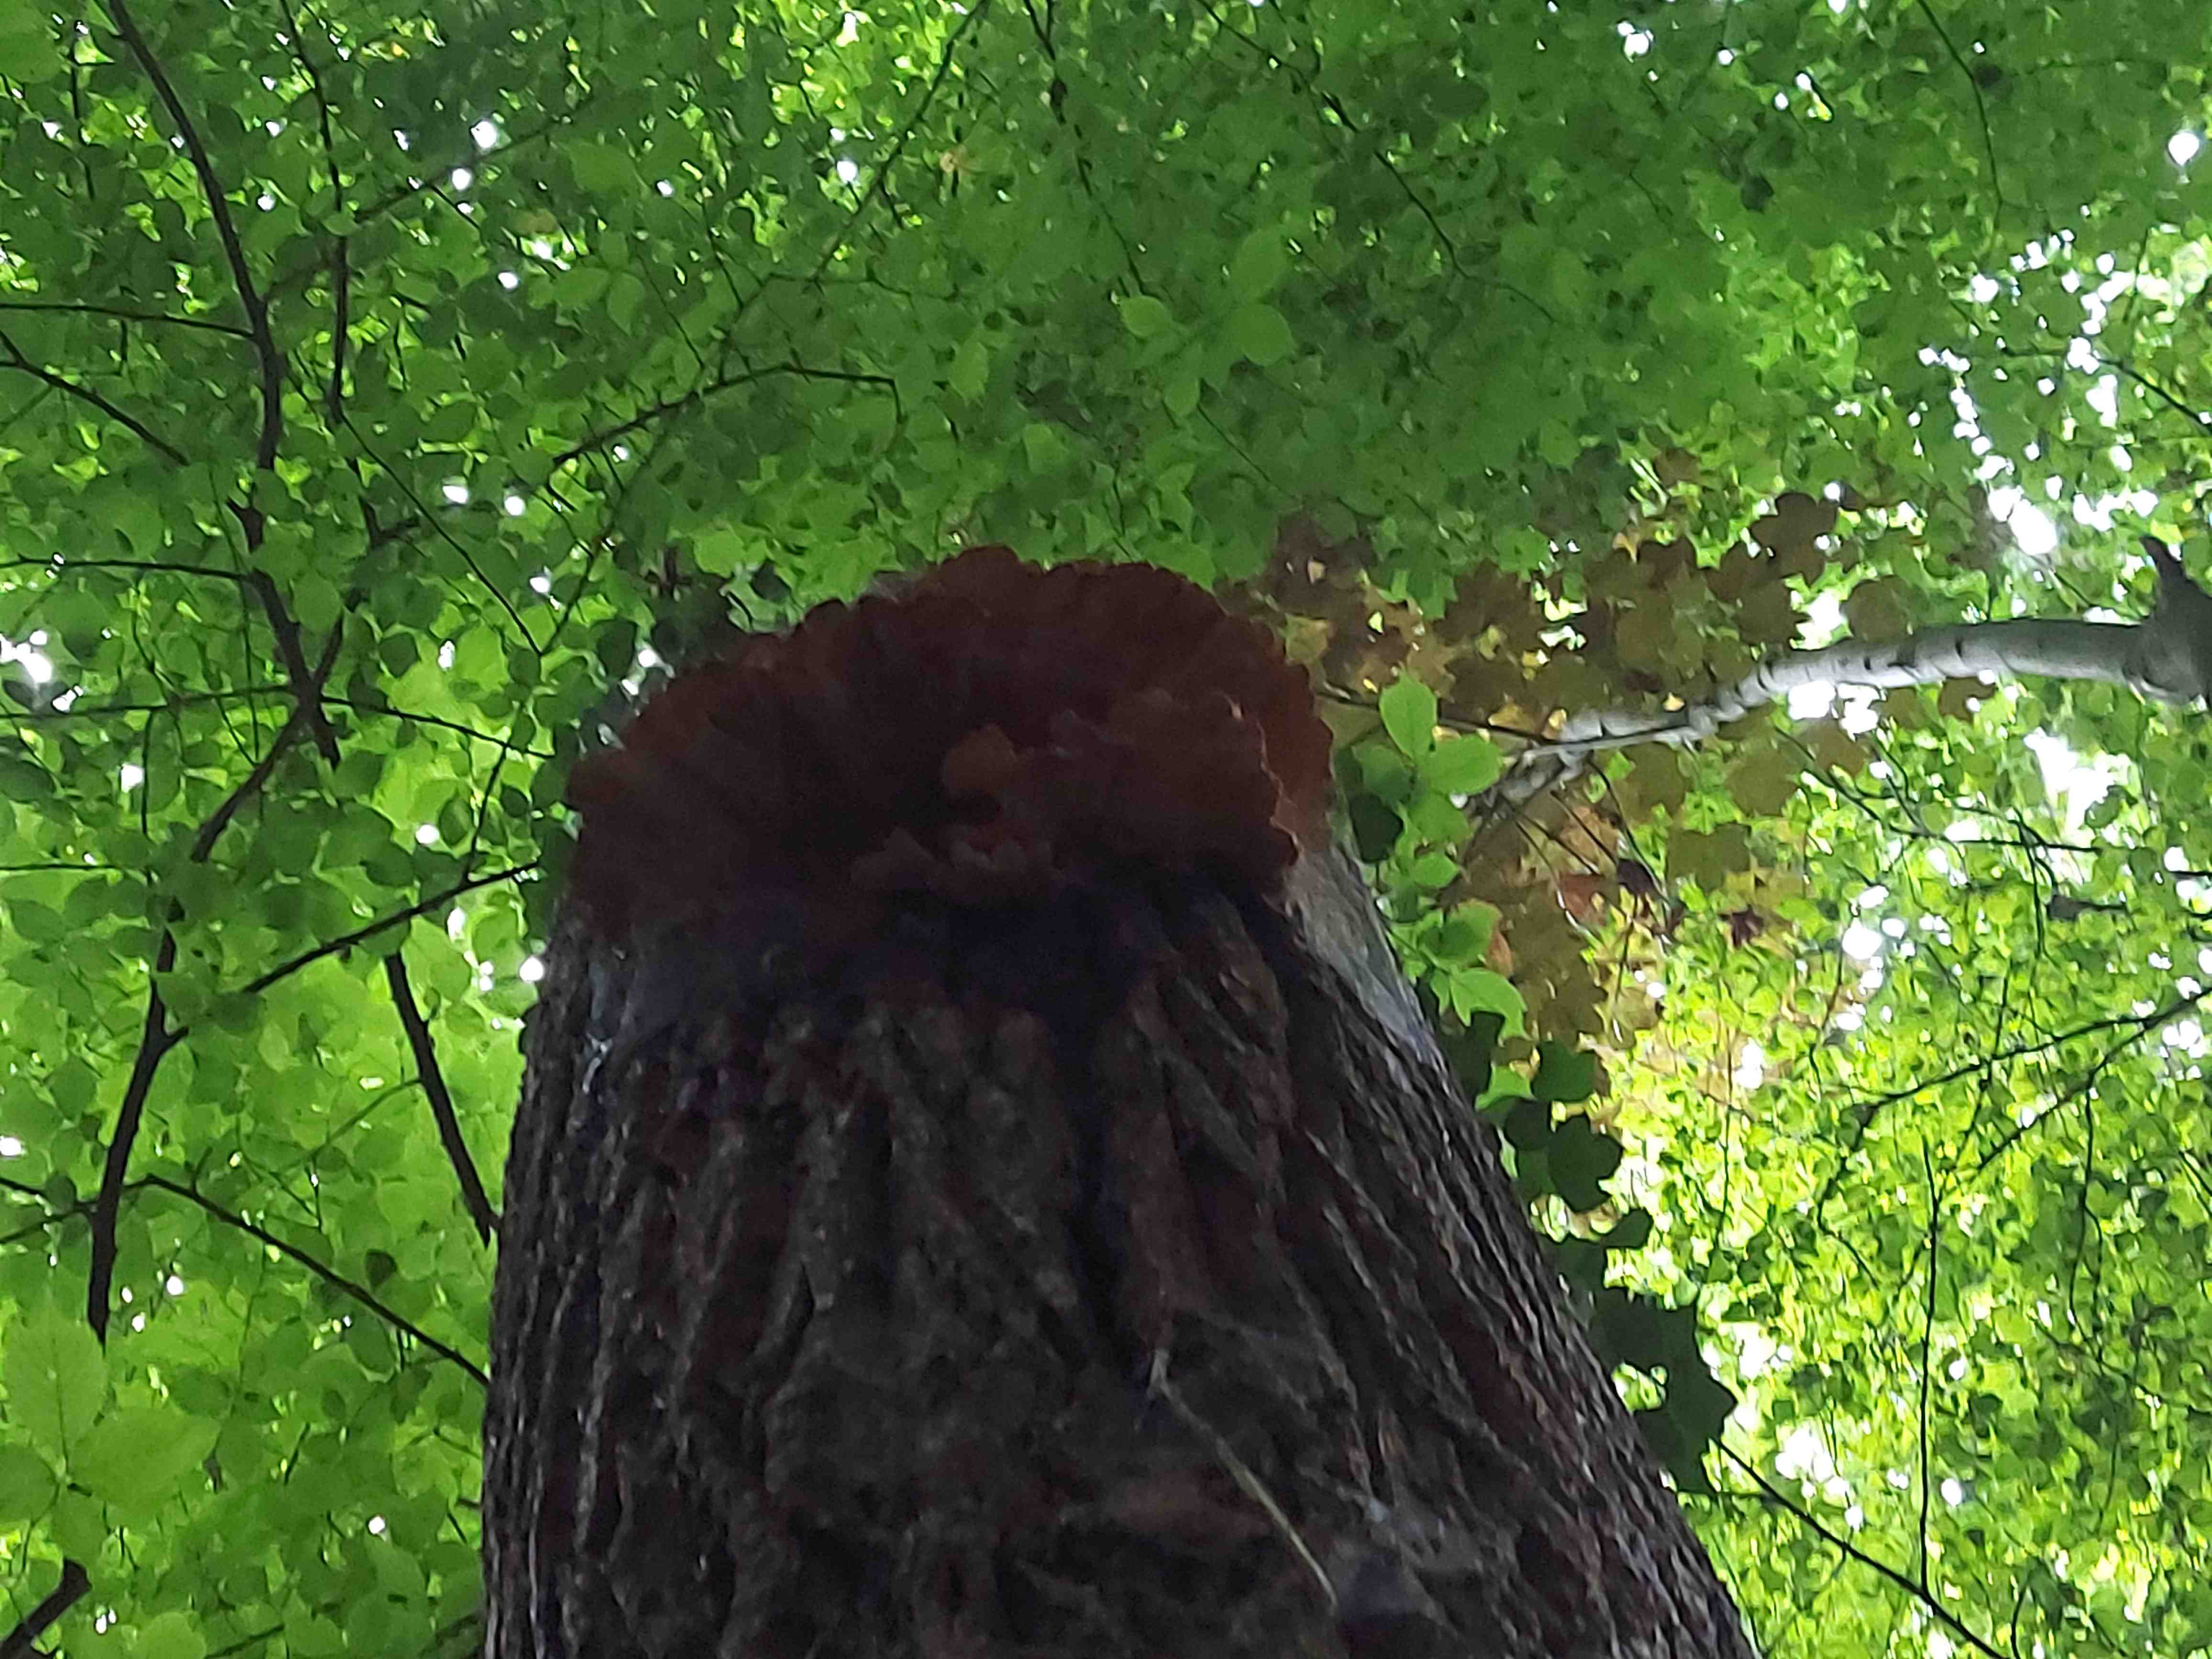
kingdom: Fungi
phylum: Basidiomycota
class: Agaricomycetes
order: Polyporales
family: Laetiporaceae
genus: Laetiporus
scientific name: Laetiporus sulphureus
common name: svovlporesvamp
